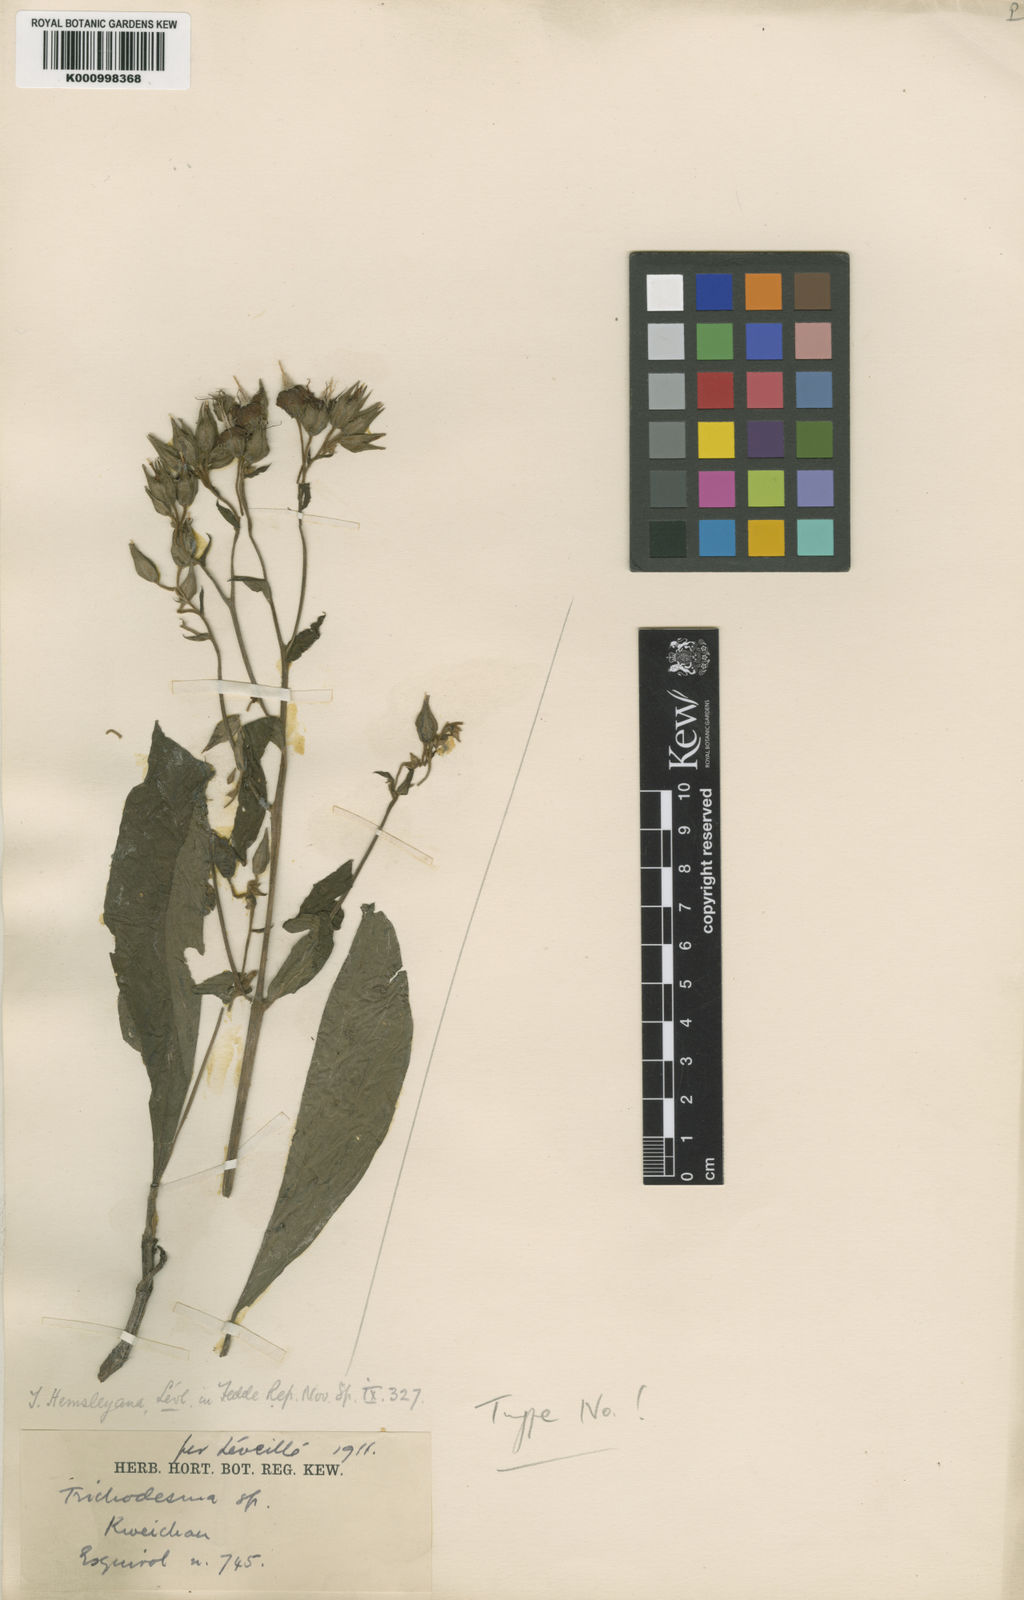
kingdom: Plantae
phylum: Tracheophyta
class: Magnoliopsida
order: Boraginales
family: Boraginaceae
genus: Trichodesma
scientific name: Trichodesma
